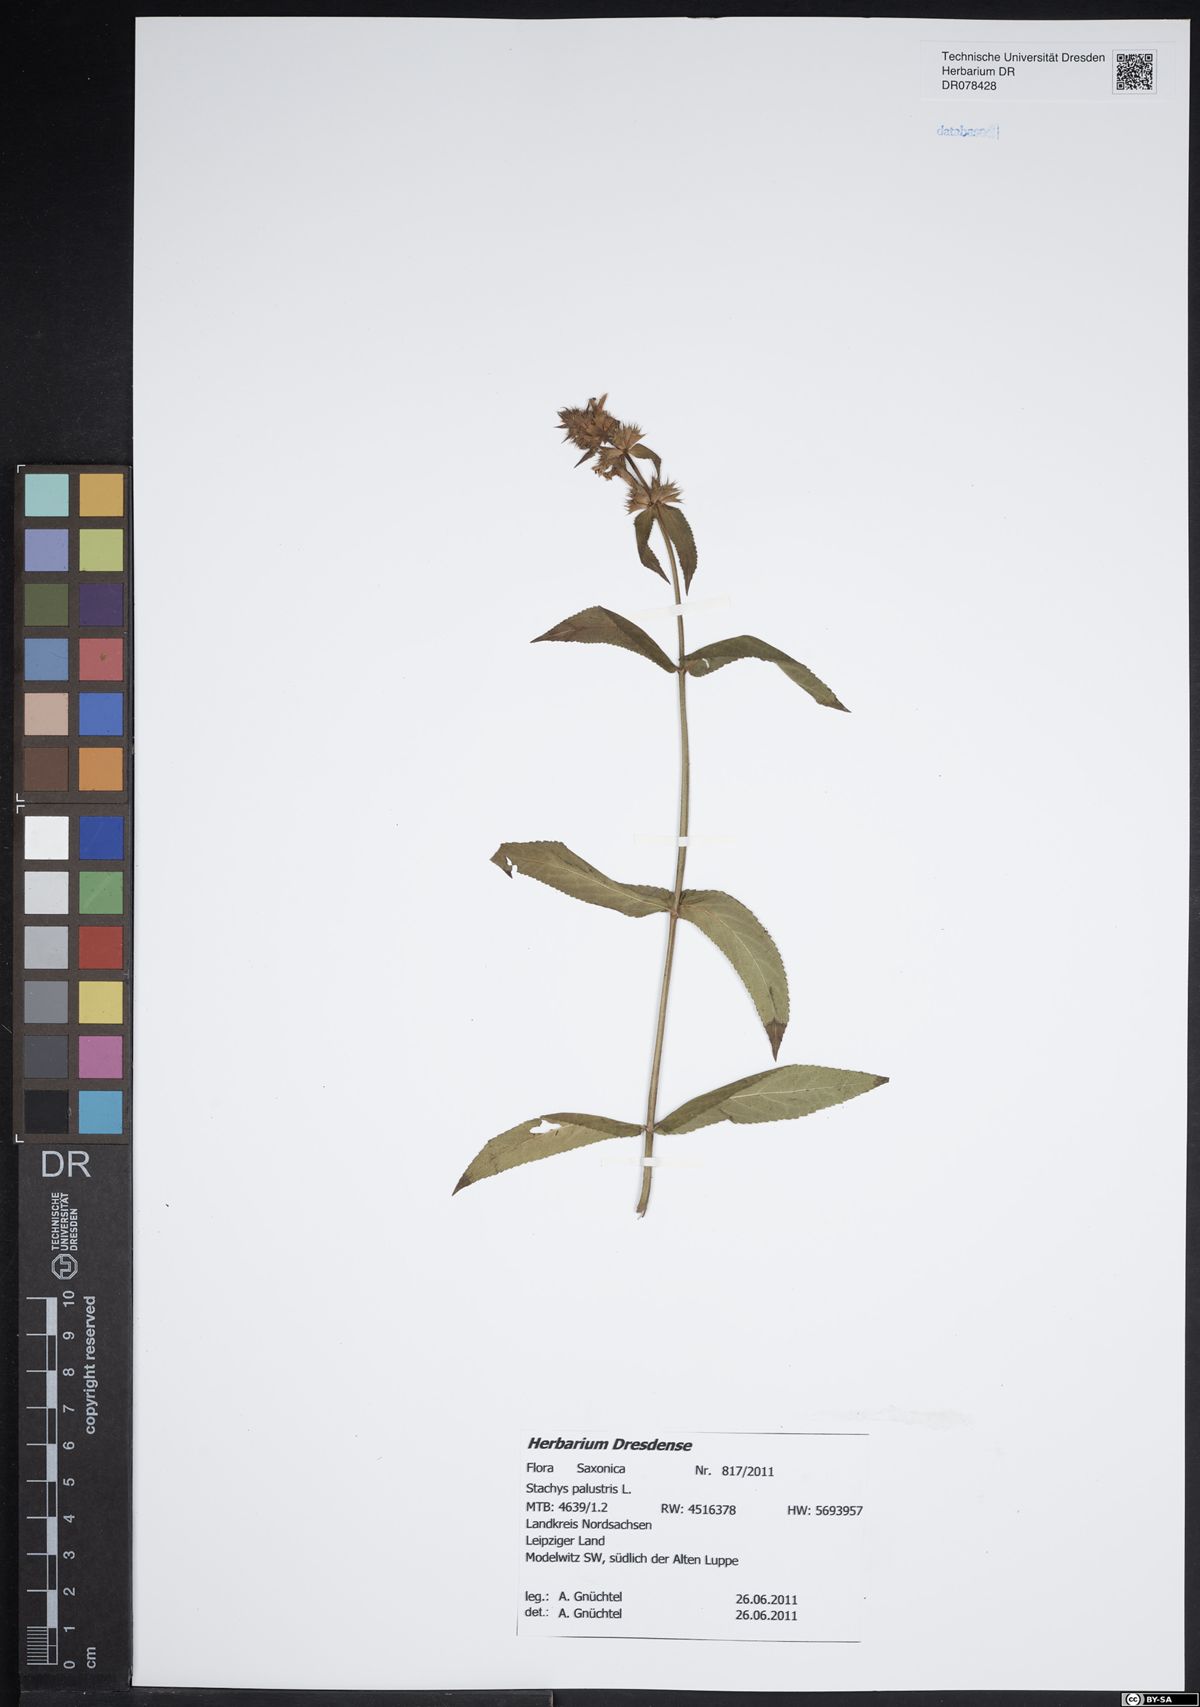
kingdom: Plantae
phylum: Tracheophyta
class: Magnoliopsida
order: Lamiales
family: Lamiaceae
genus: Stachys
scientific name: Stachys palustris
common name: Marsh woundwort
